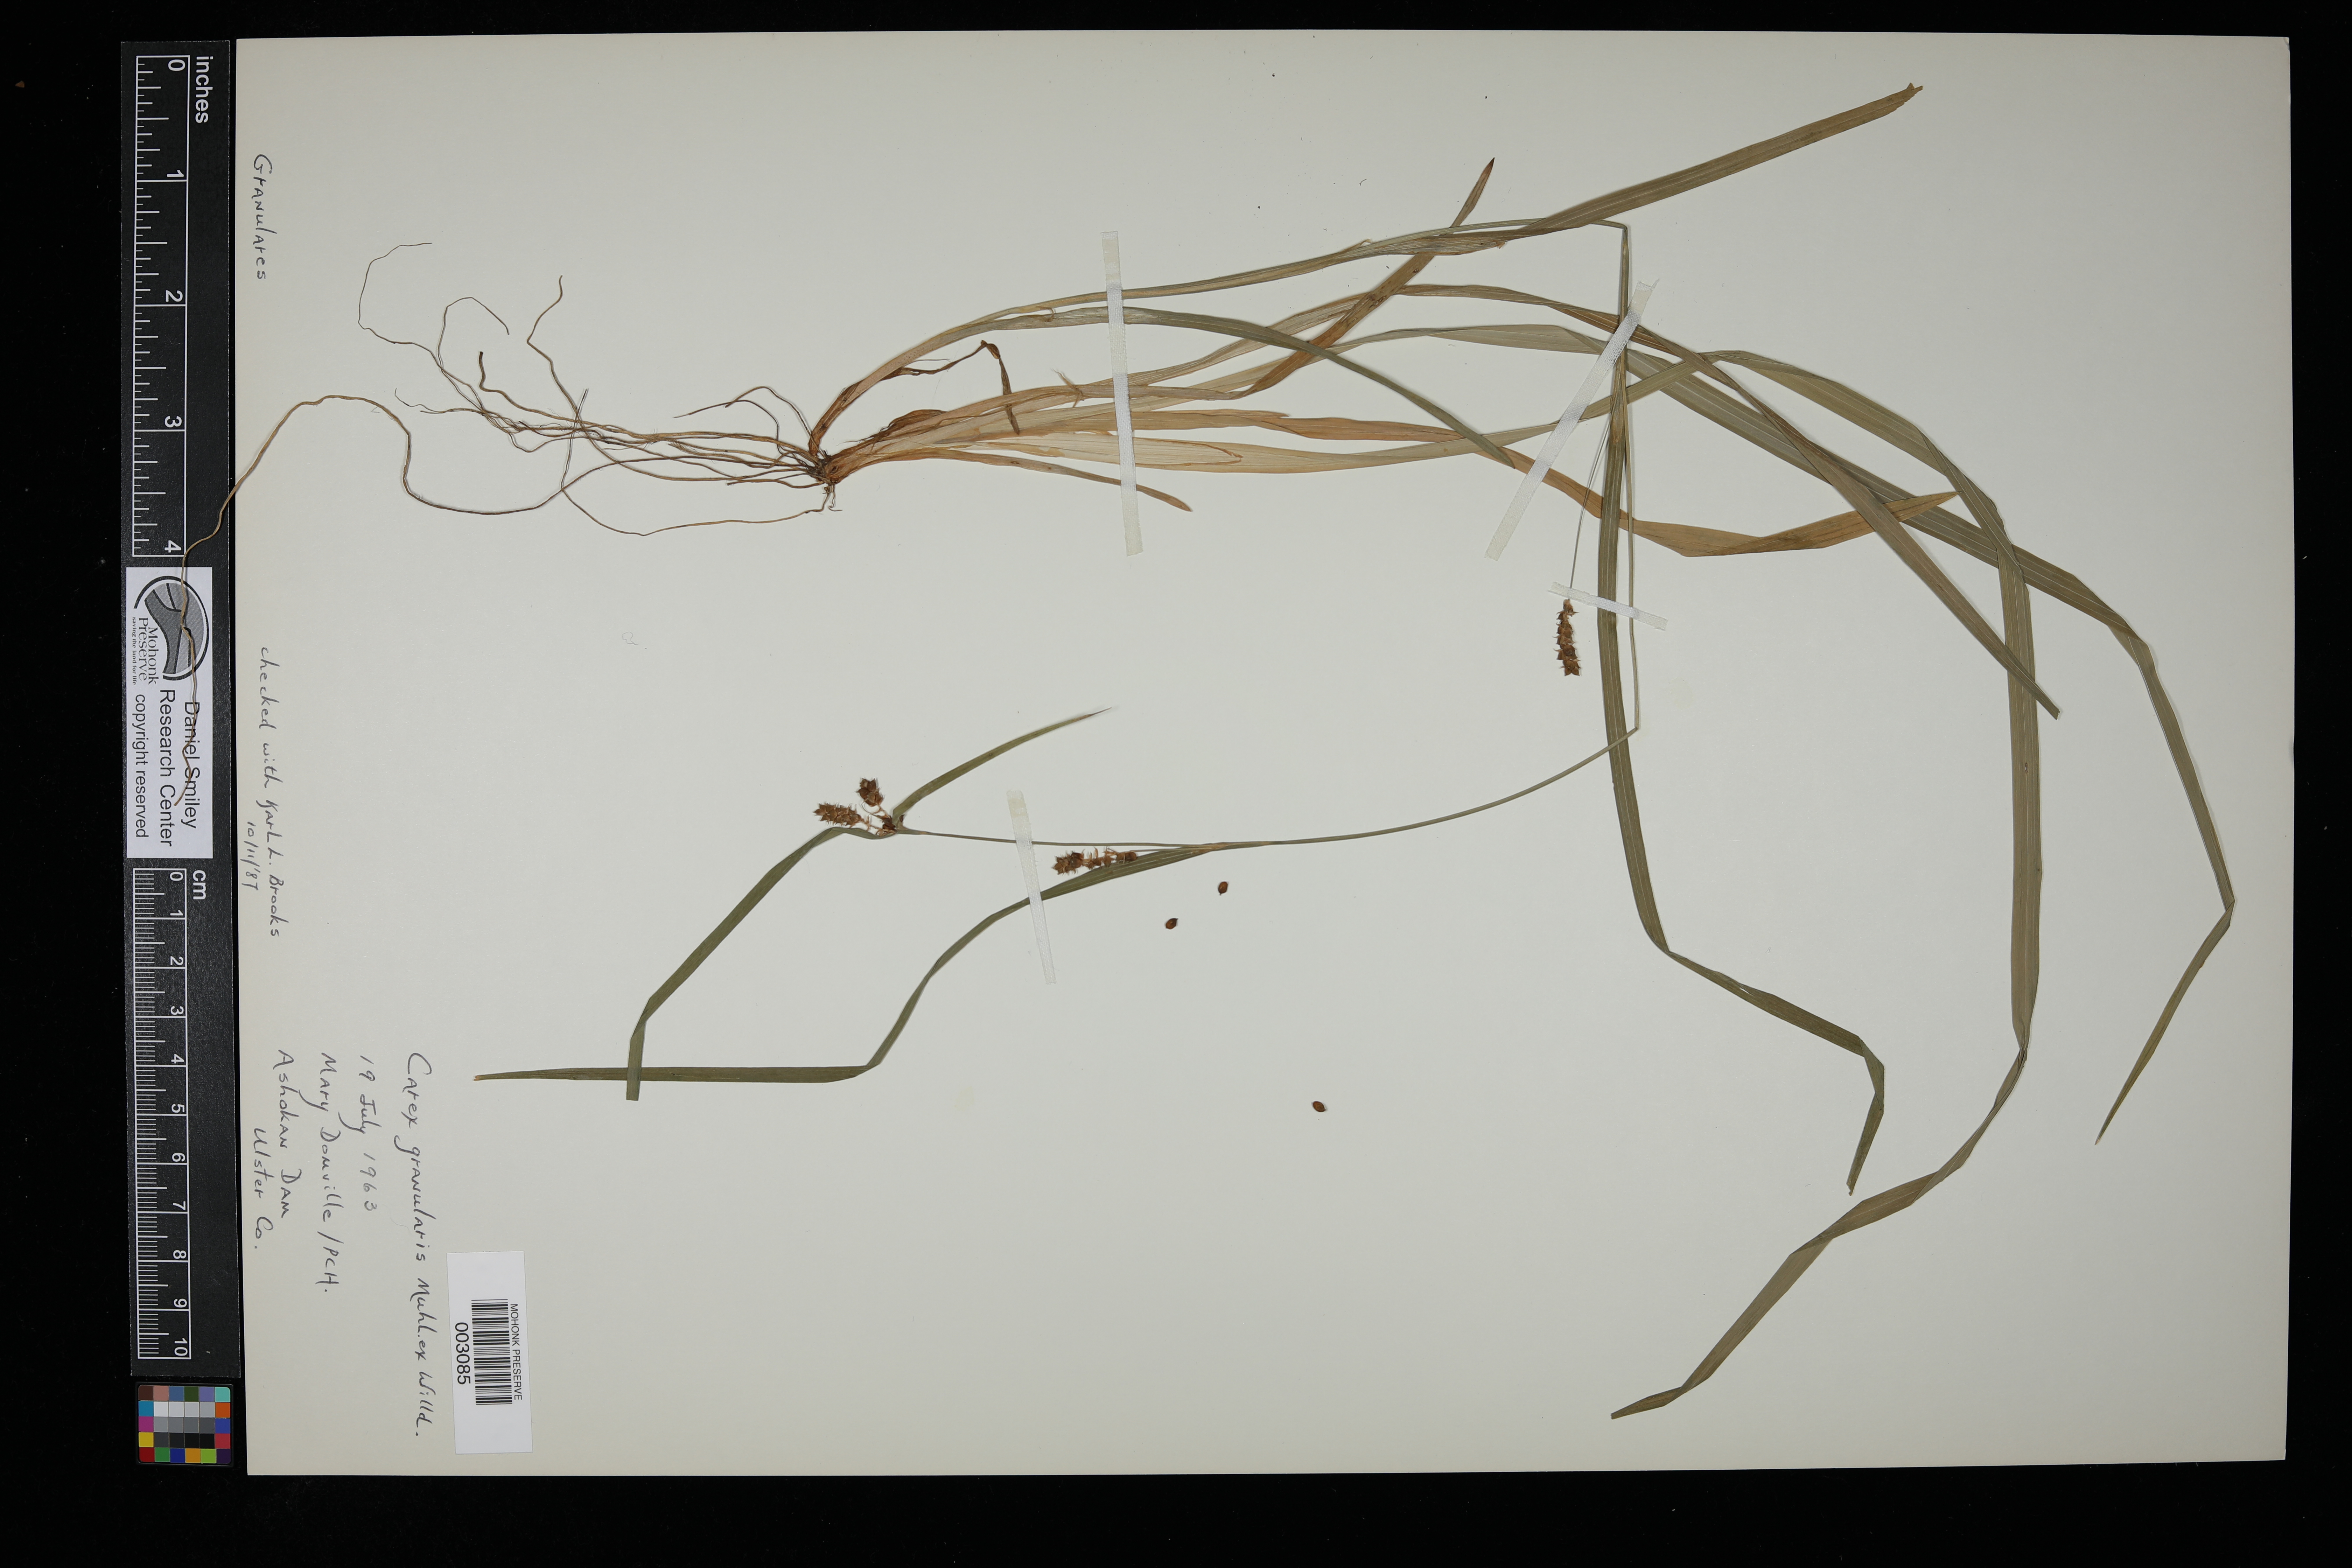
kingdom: Plantae
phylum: Tracheophyta
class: Liliopsida
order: Poales
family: Cyperaceae
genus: Carex
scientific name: Carex granularis
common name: Granular sedge
